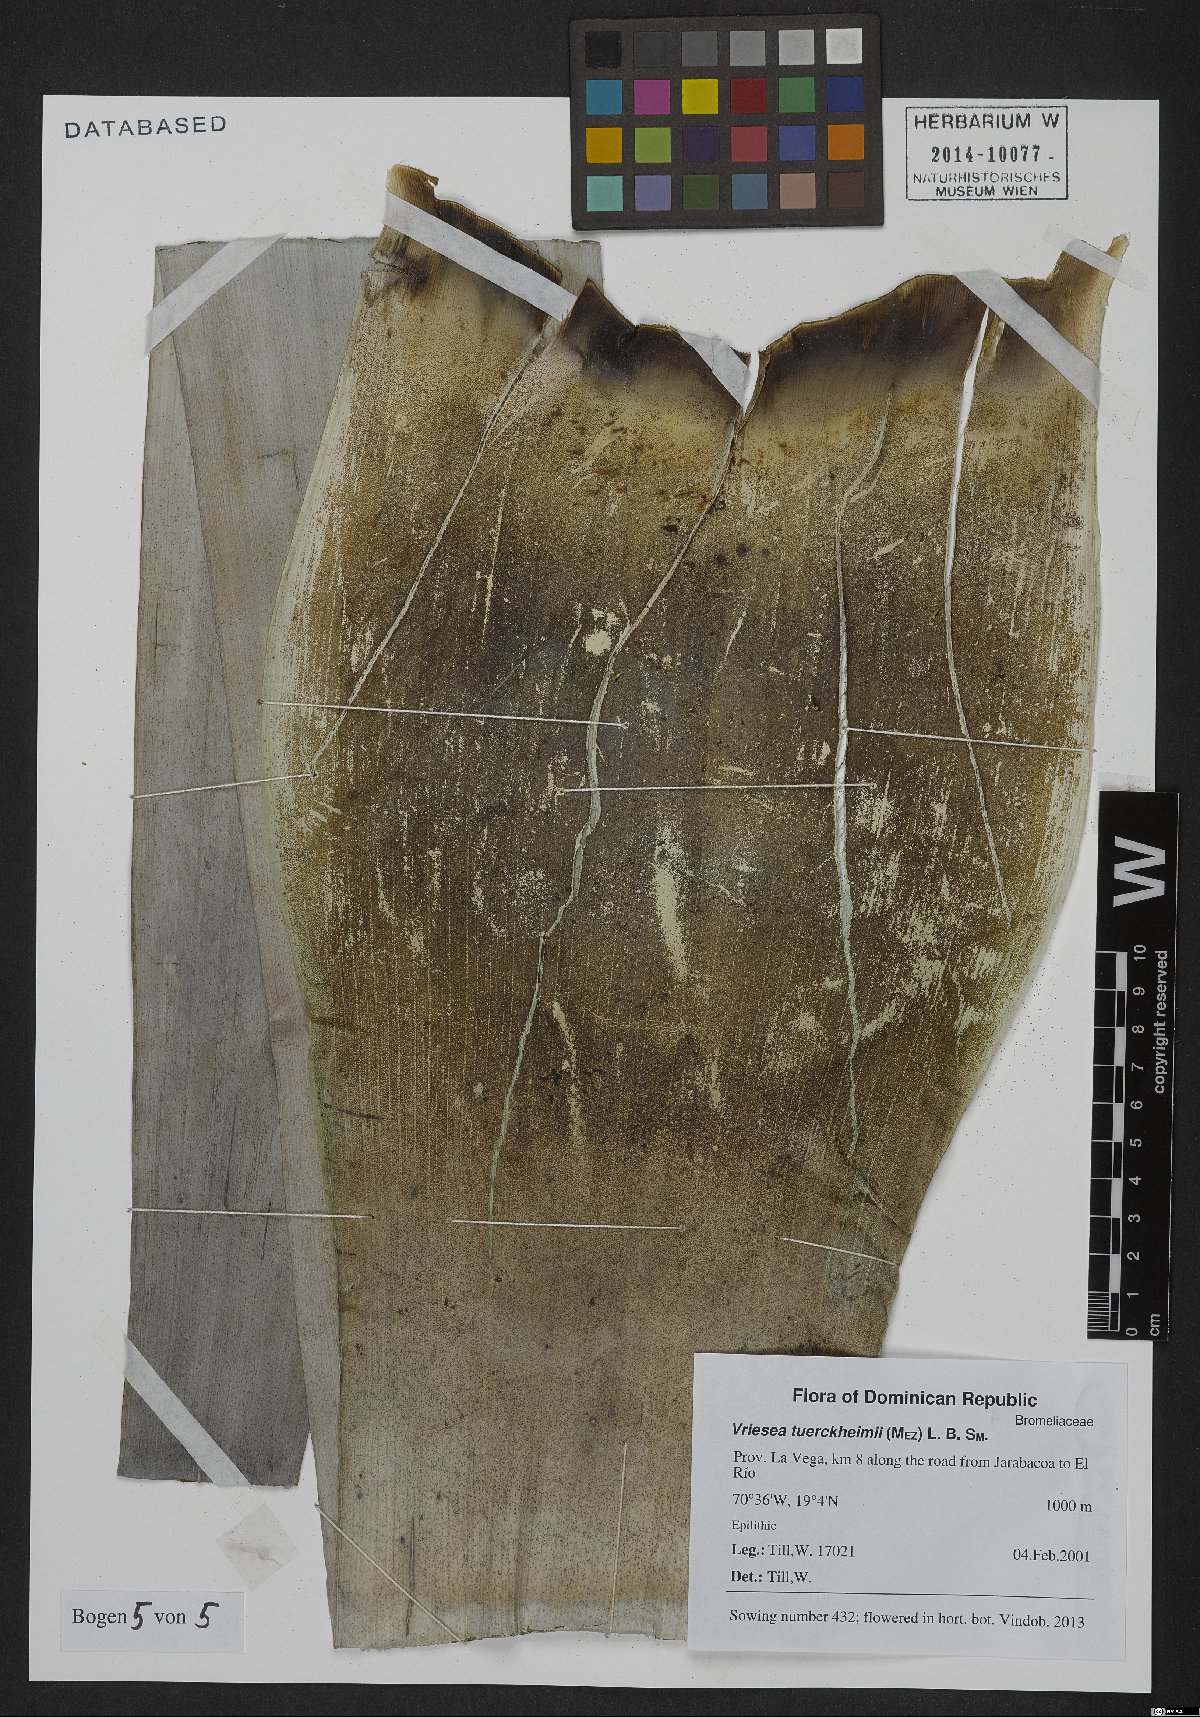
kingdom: Plantae
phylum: Tracheophyta
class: Liliopsida
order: Poales
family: Bromeliaceae
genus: Zizkaea
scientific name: Zizkaea tuerckheimii
